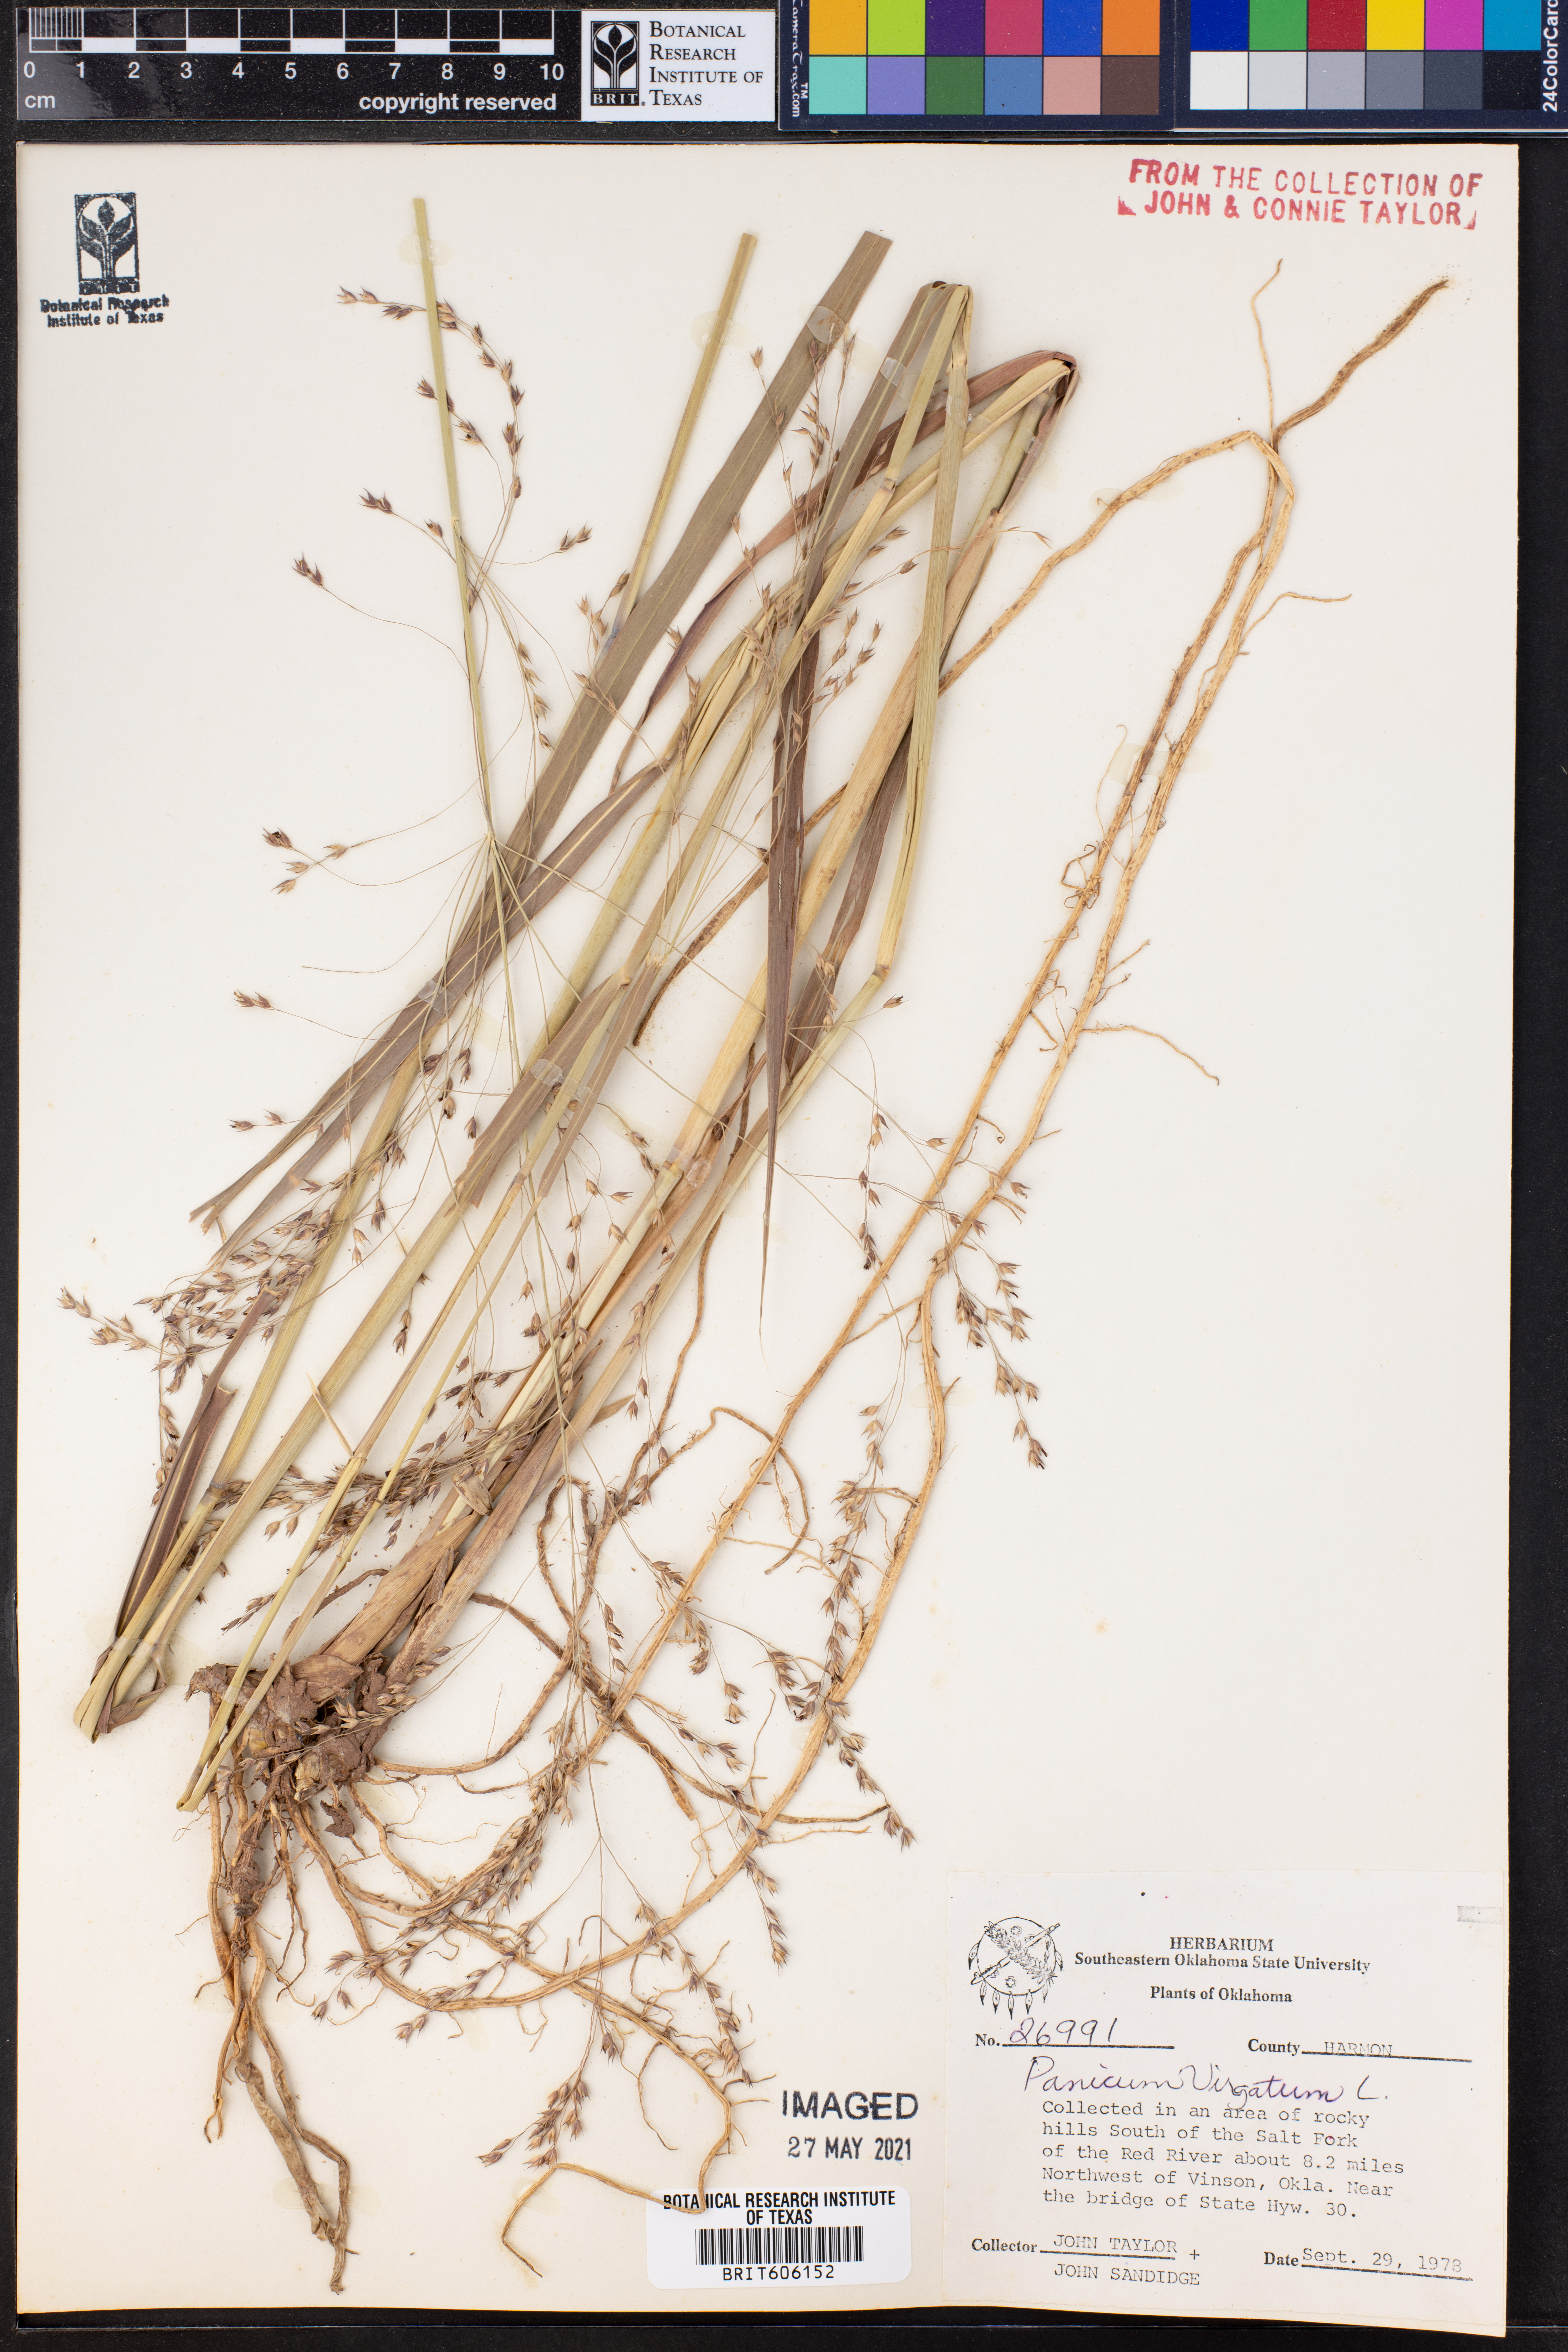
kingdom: Plantae
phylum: Tracheophyta
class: Liliopsida
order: Poales
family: Poaceae
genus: Panicum
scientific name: Panicum virgatum
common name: Switchgrass
